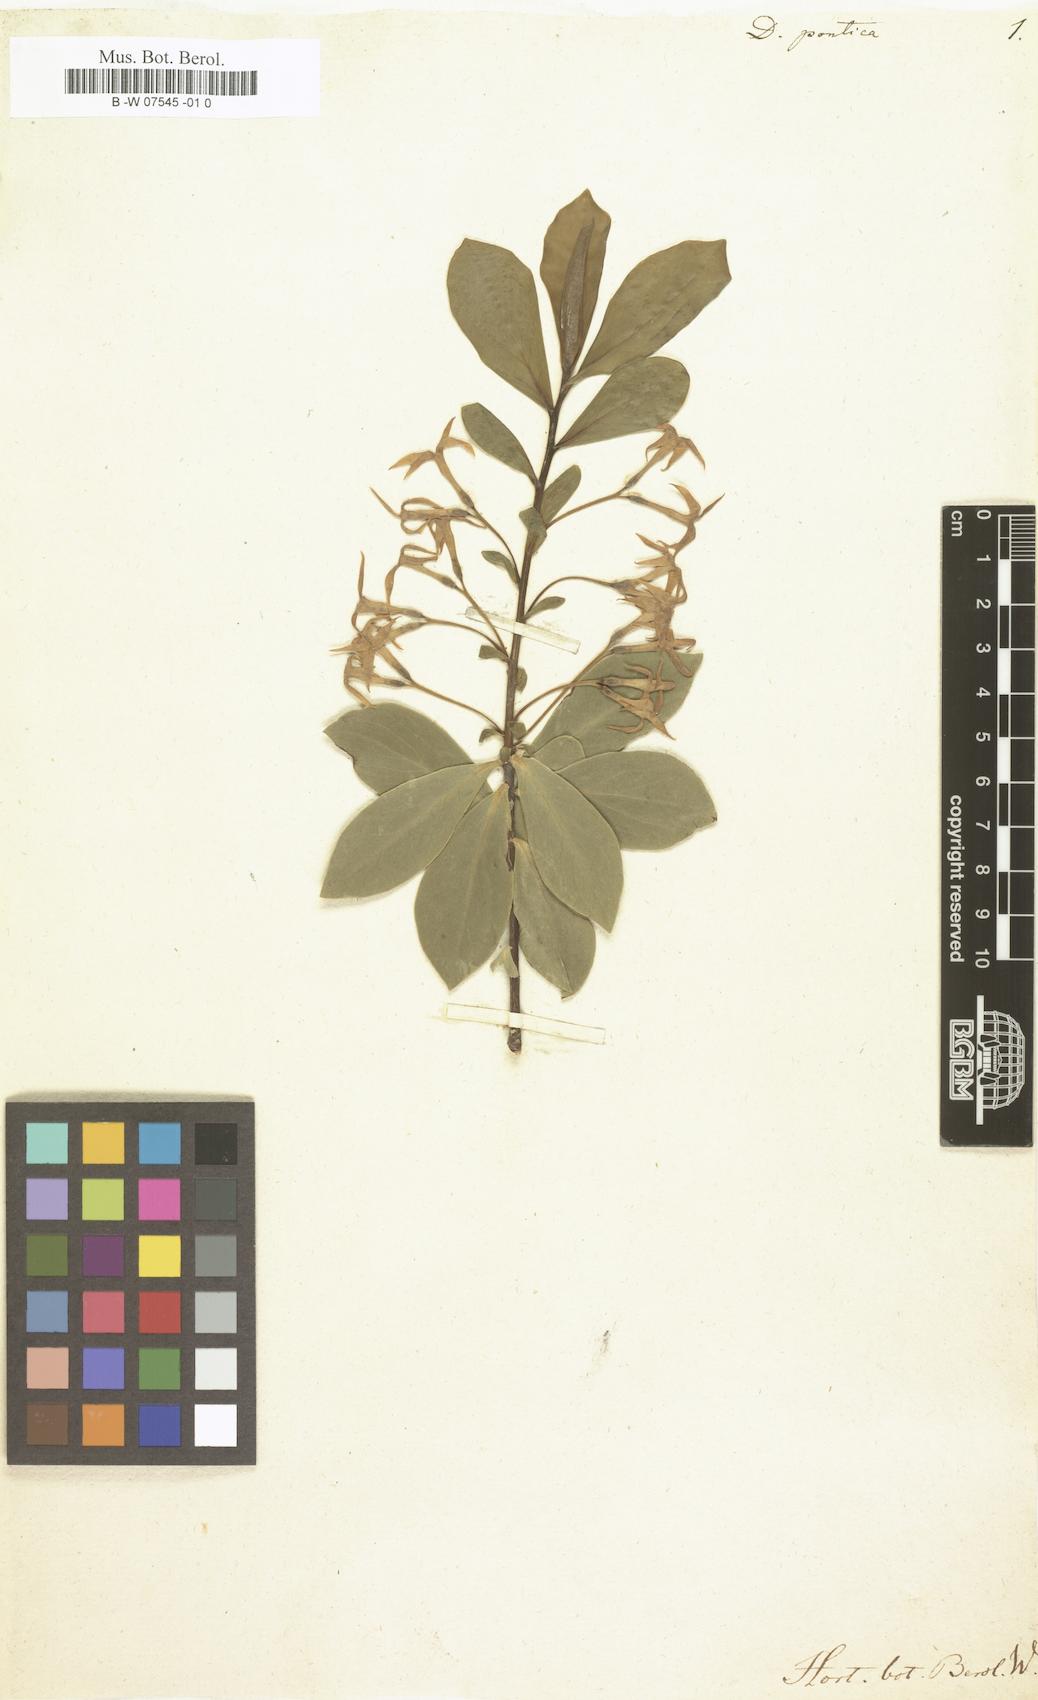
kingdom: Plantae
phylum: Tracheophyta
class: Magnoliopsida
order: Malvales
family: Thymelaeaceae
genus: Daphne
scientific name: Daphne pontica
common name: Twin-flower daphne
